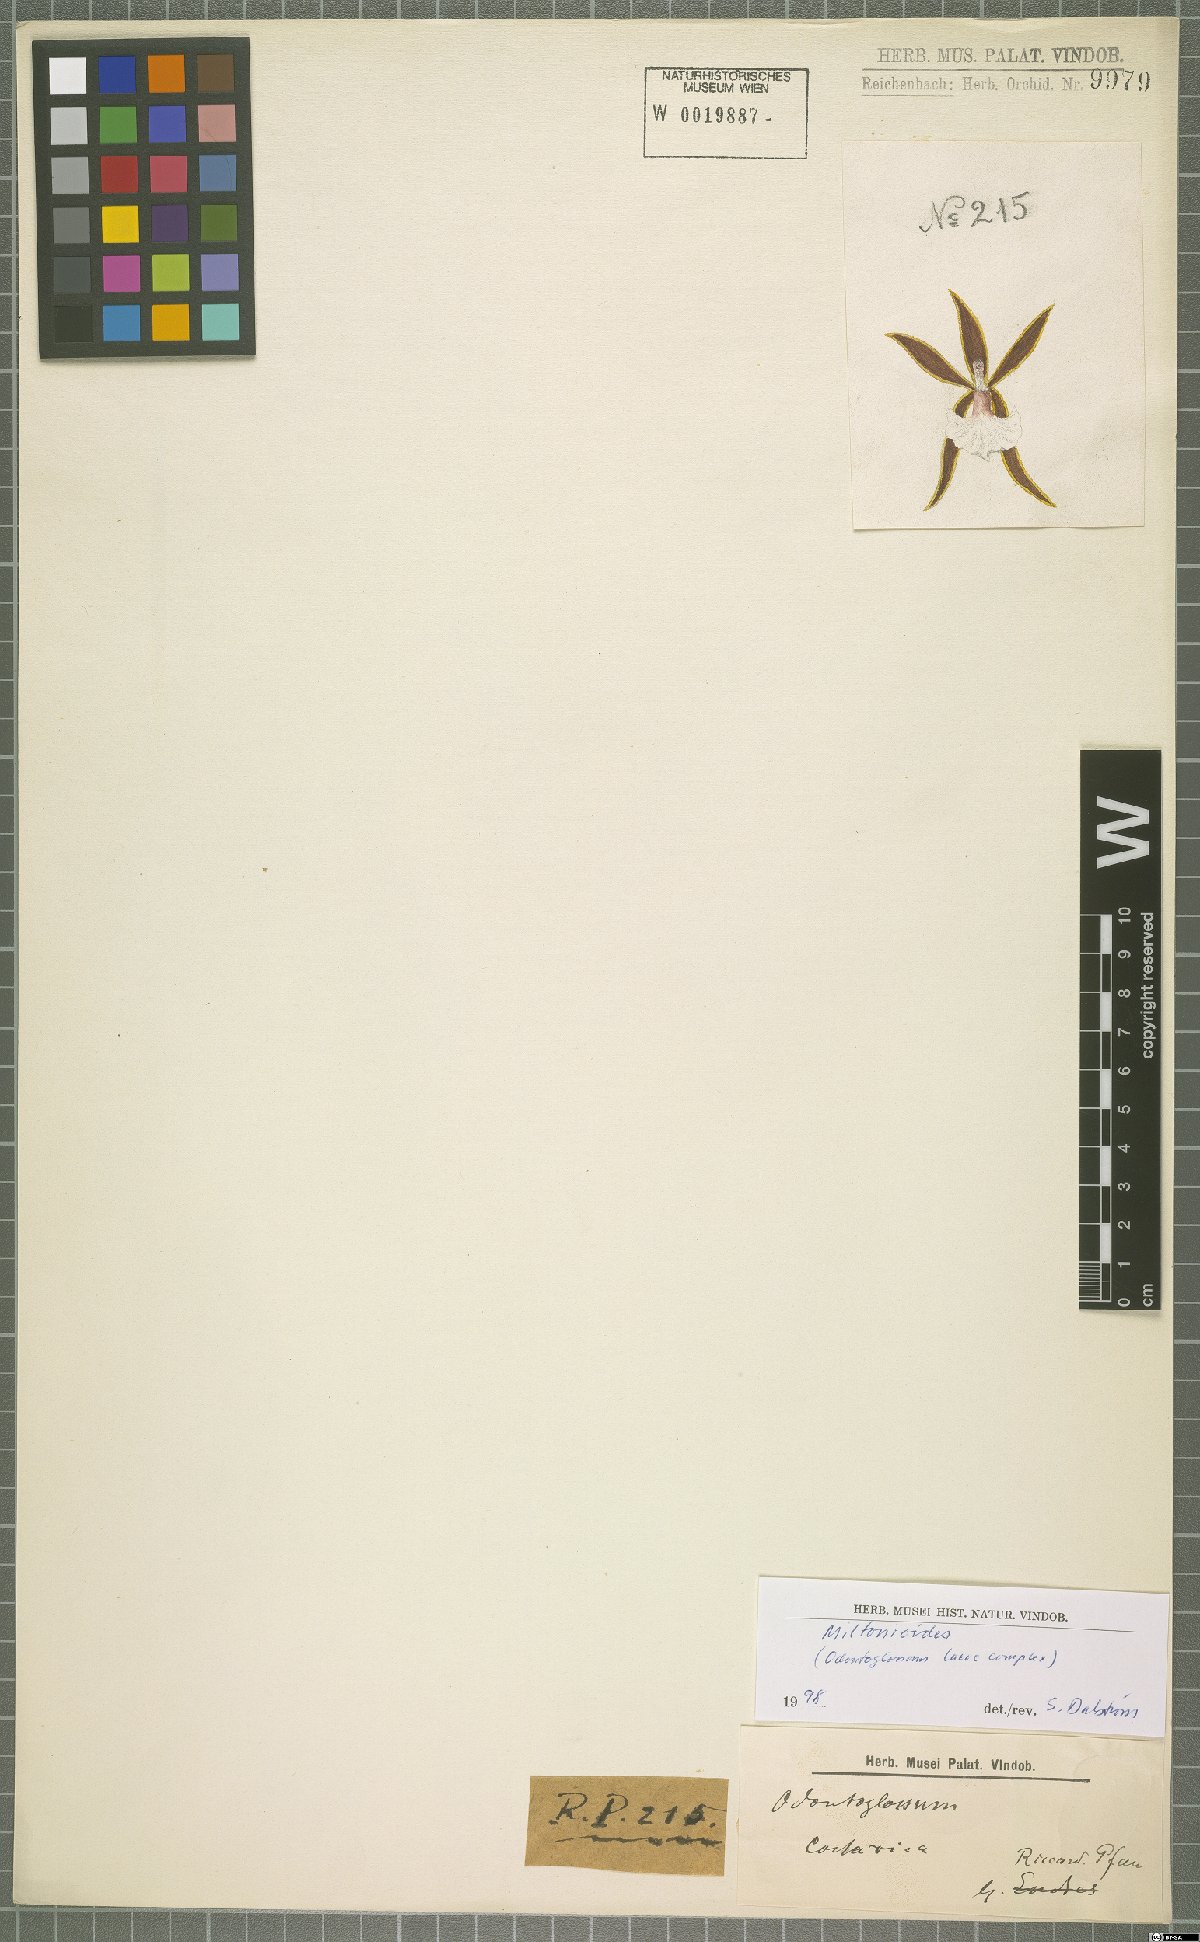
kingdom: Plantae
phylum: Tracheophyta
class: Liliopsida
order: Asparagales
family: Orchidaceae
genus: Oncidium
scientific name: Oncidium
